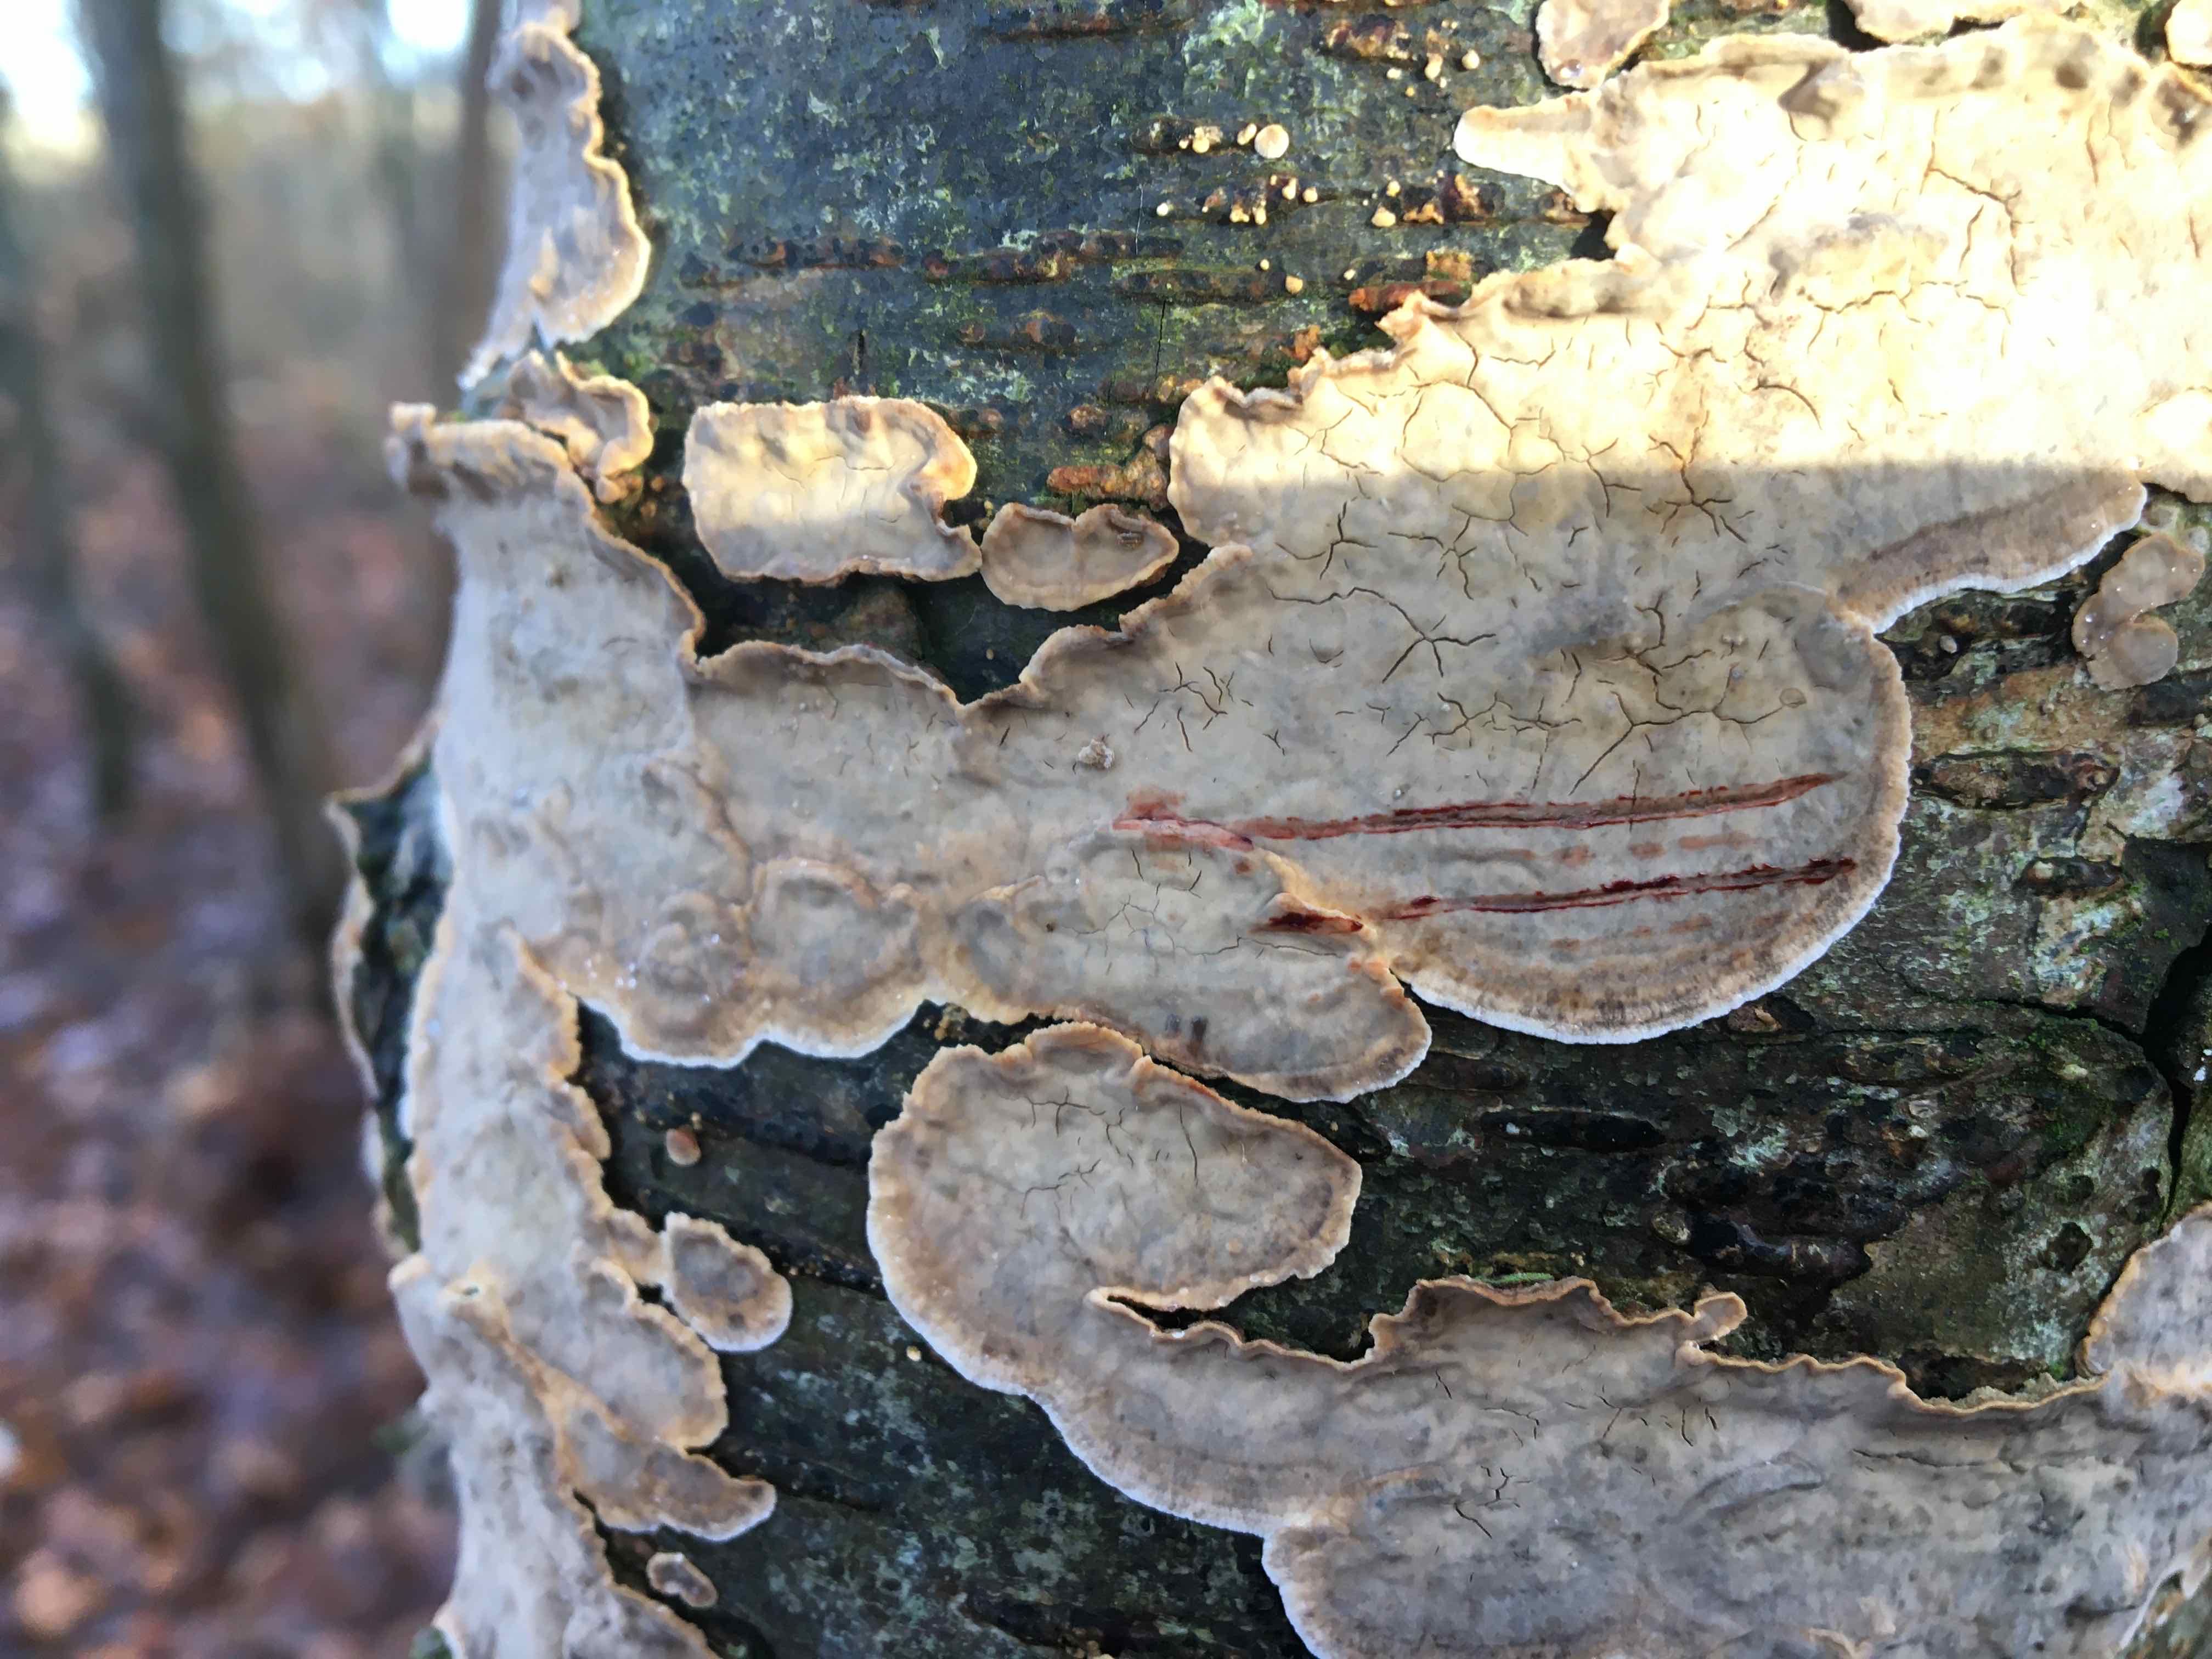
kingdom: Fungi
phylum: Basidiomycota
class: Agaricomycetes
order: Russulales
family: Stereaceae
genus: Stereum
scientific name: Stereum rugosum
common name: rynket lædersvamp
